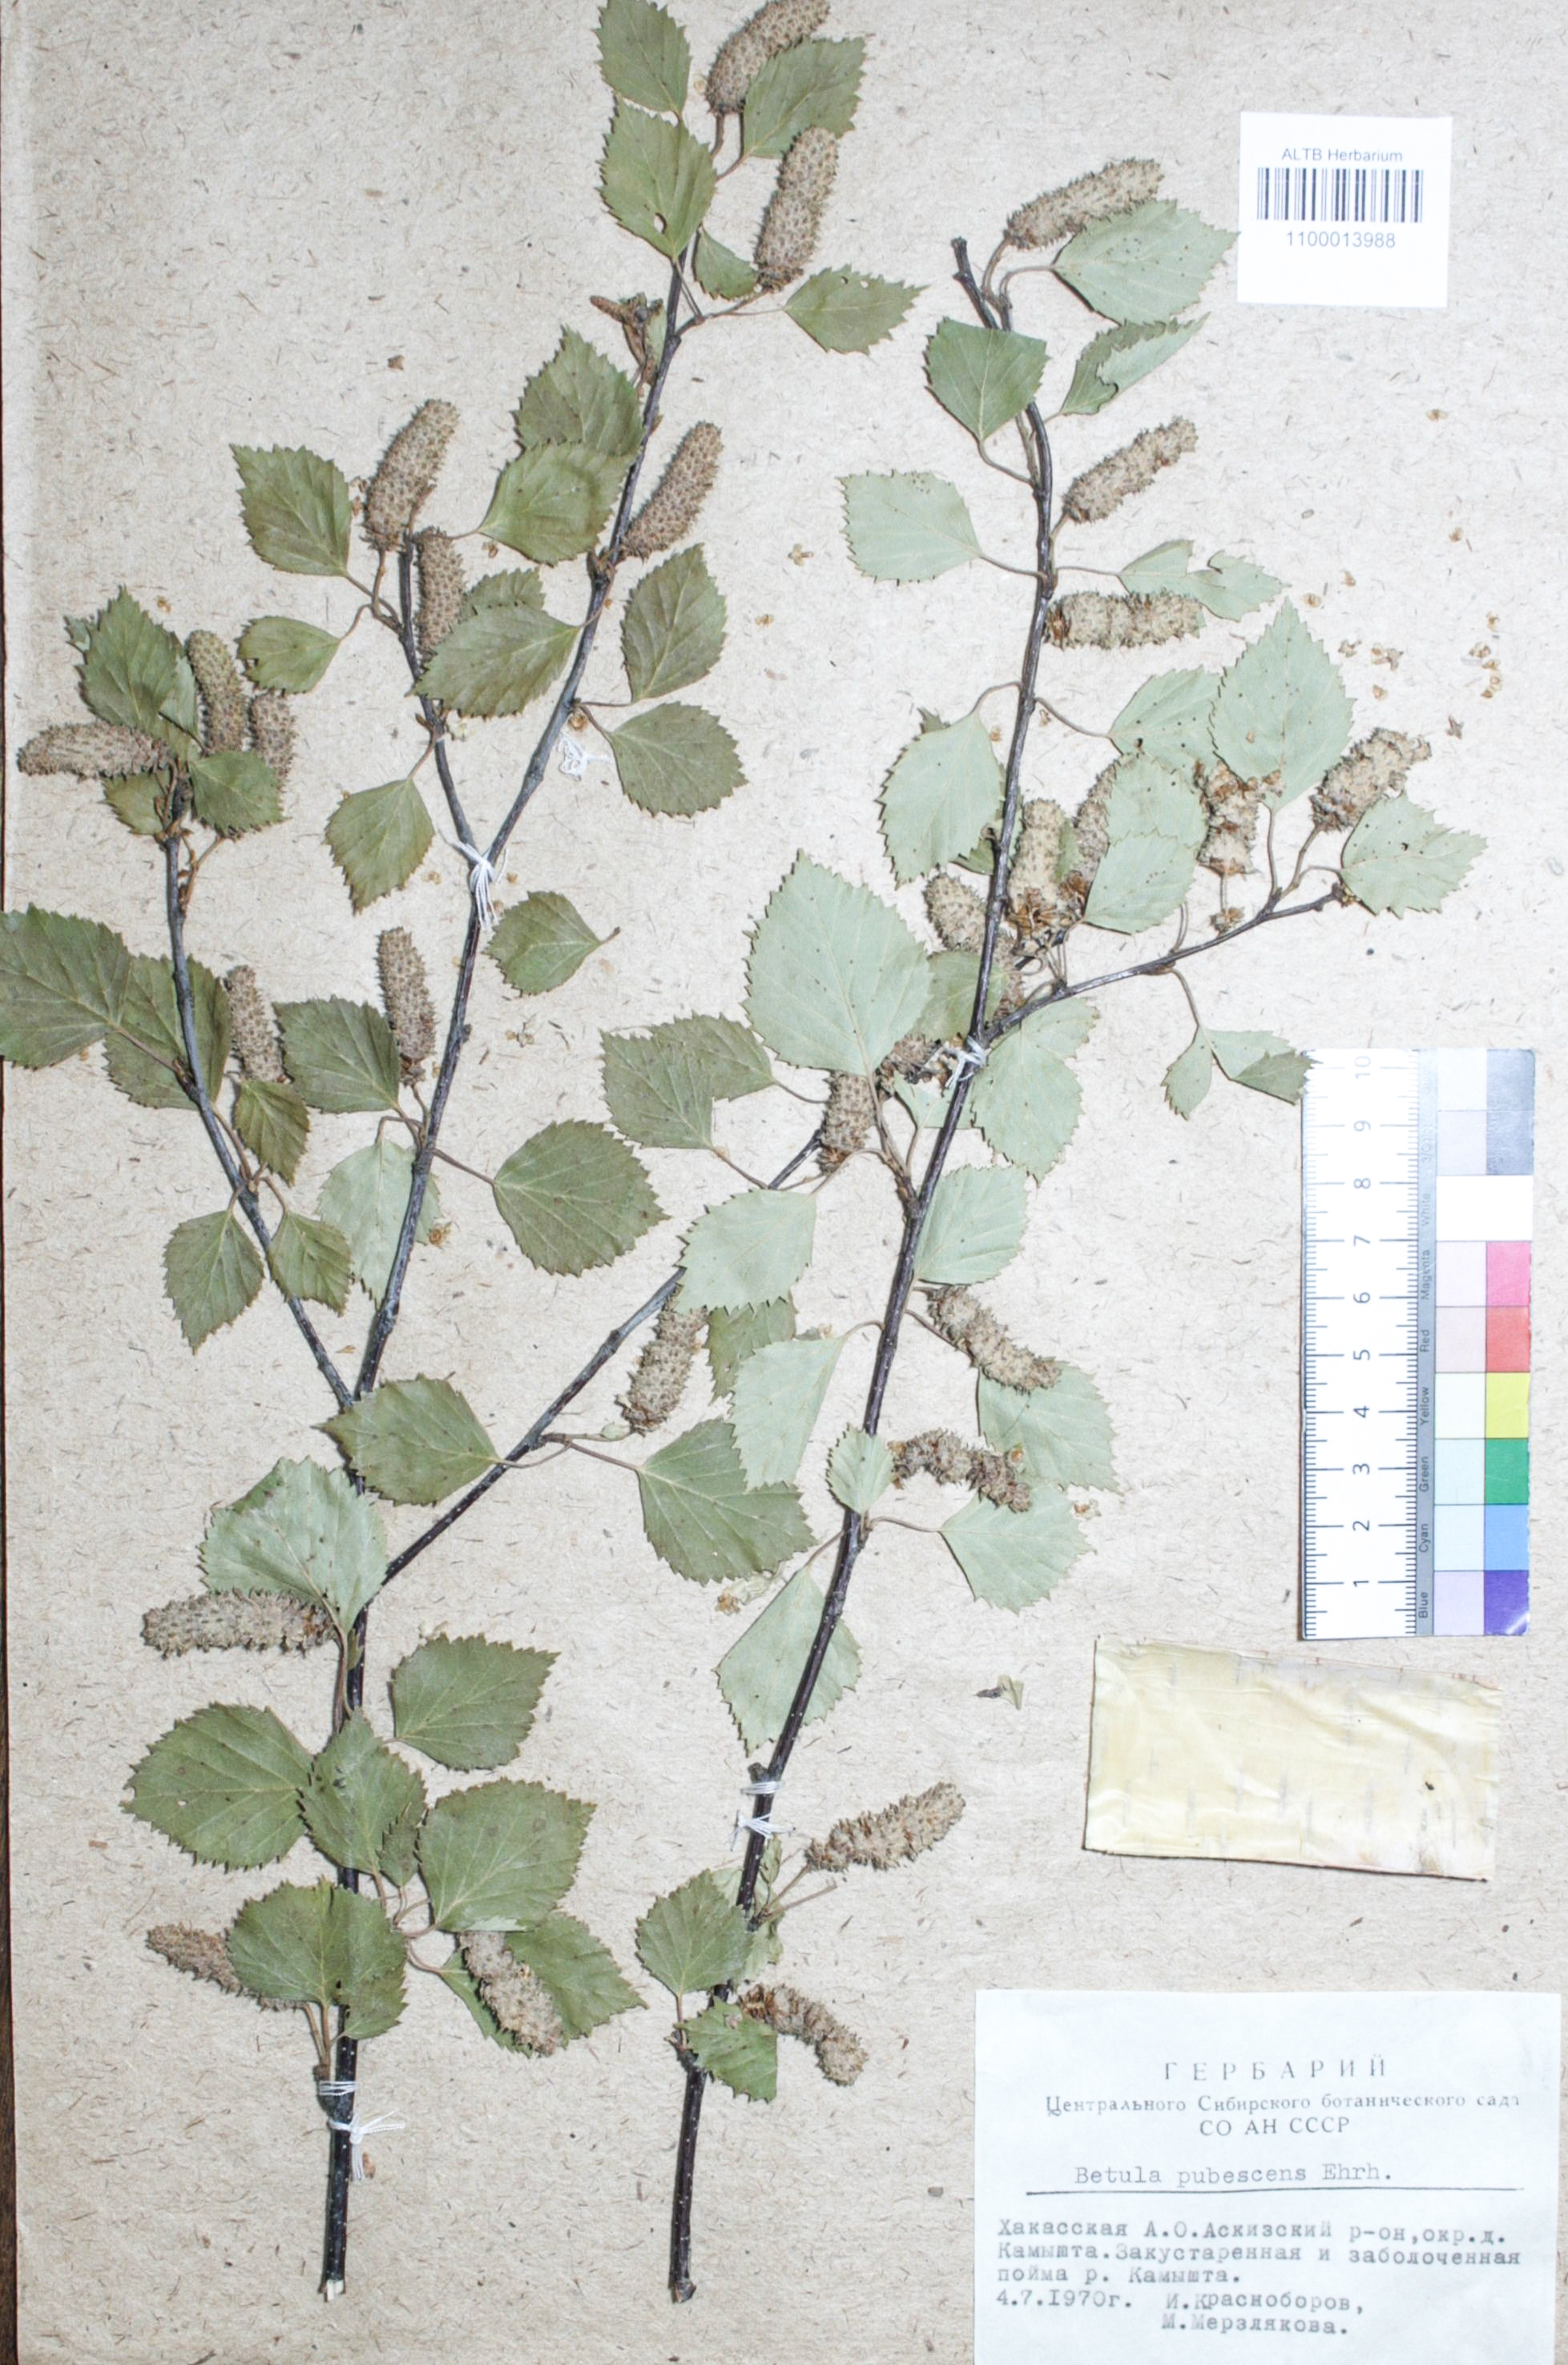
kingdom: Plantae
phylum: Tracheophyta
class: Magnoliopsida
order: Fagales
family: Betulaceae
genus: Betula
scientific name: Betula pubescens
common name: Downy birch
